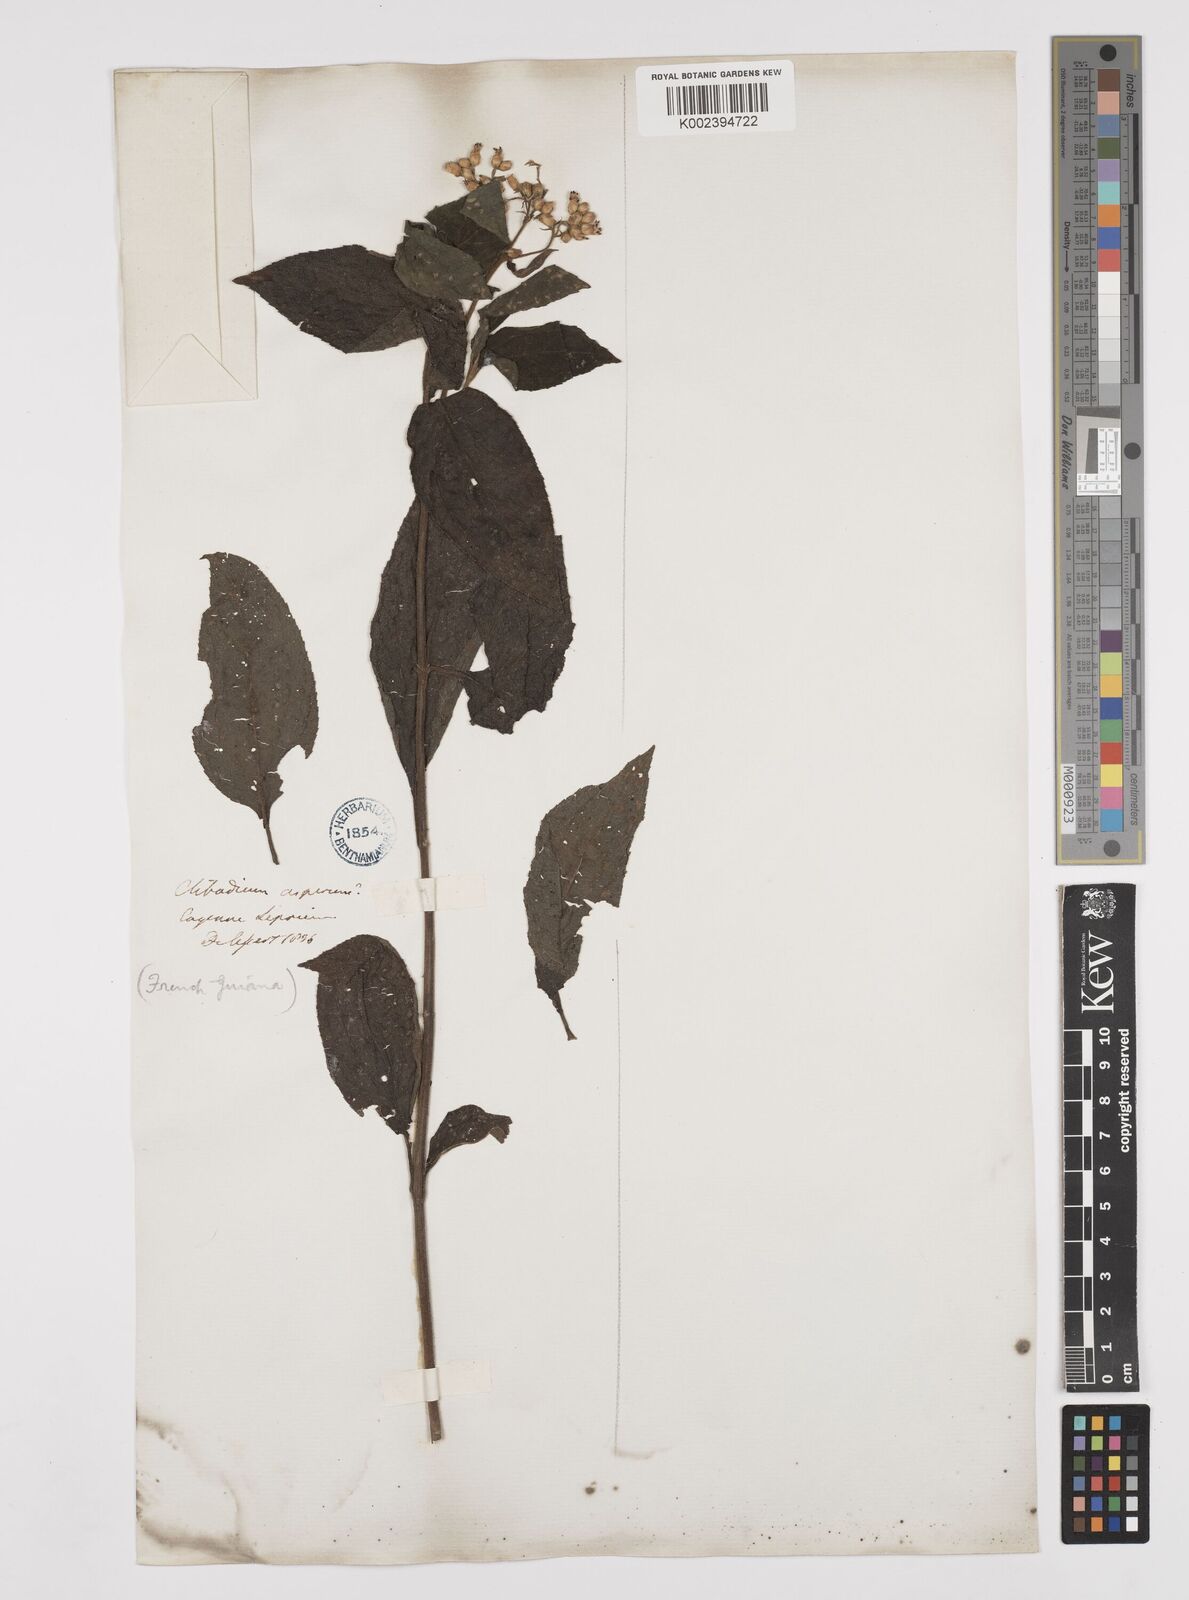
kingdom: Plantae
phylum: Tracheophyta
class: Magnoliopsida
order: Asterales
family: Asteraceae
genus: Clibadium
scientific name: Clibadium surinamense
